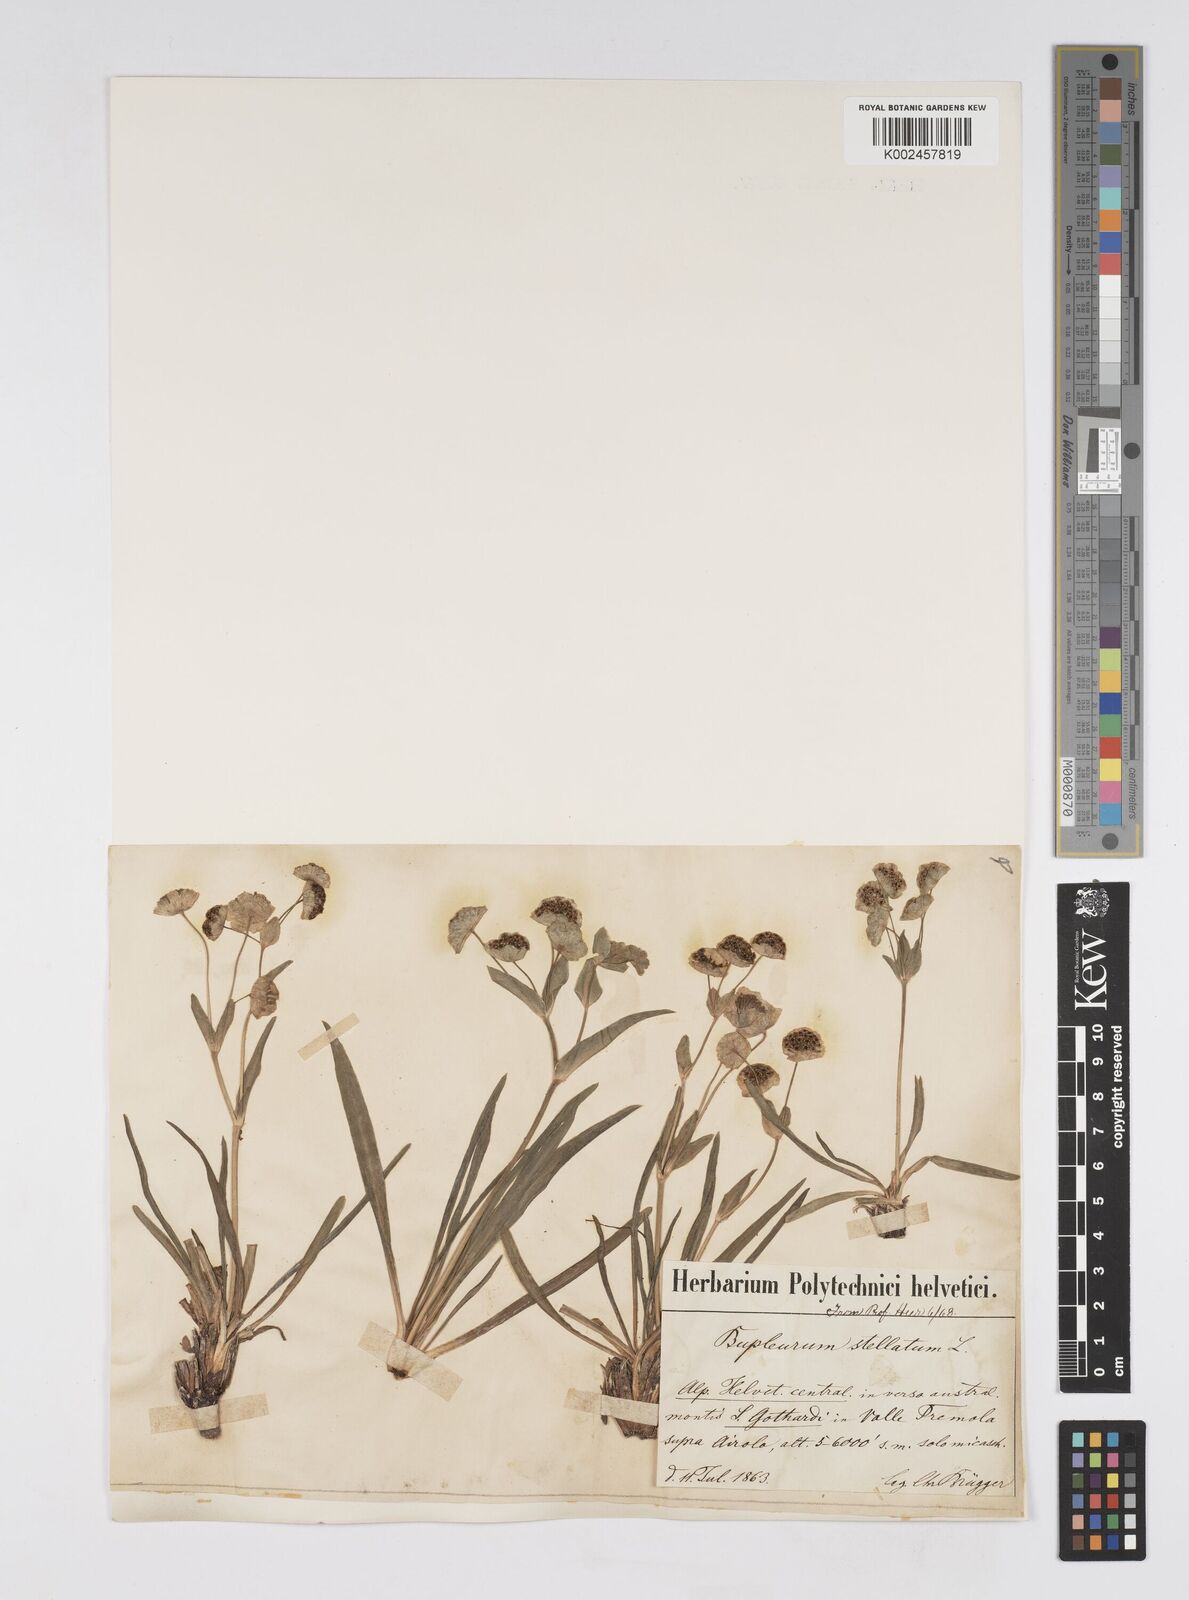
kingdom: Plantae
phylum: Tracheophyta
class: Magnoliopsida
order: Apiales
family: Apiaceae
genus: Bupleurum
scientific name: Bupleurum stellatum
